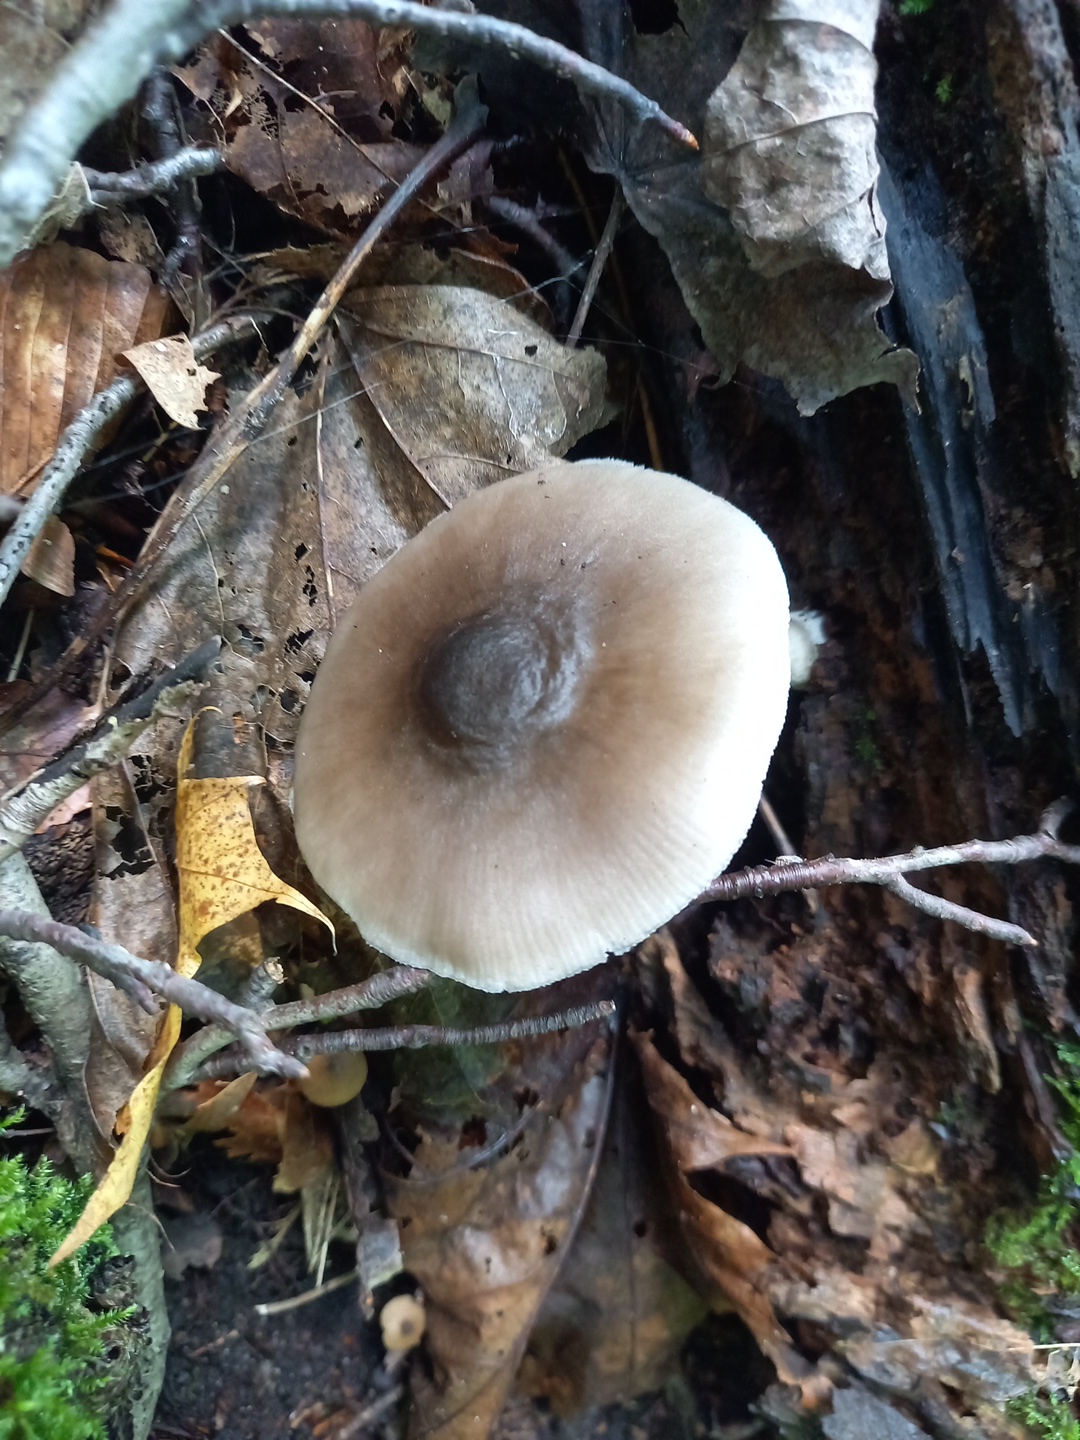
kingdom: Fungi
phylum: Basidiomycota
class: Agaricomycetes
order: Agaricales
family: Pluteaceae
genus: Pluteus
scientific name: Pluteus salicinus
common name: stiv skærmhat
